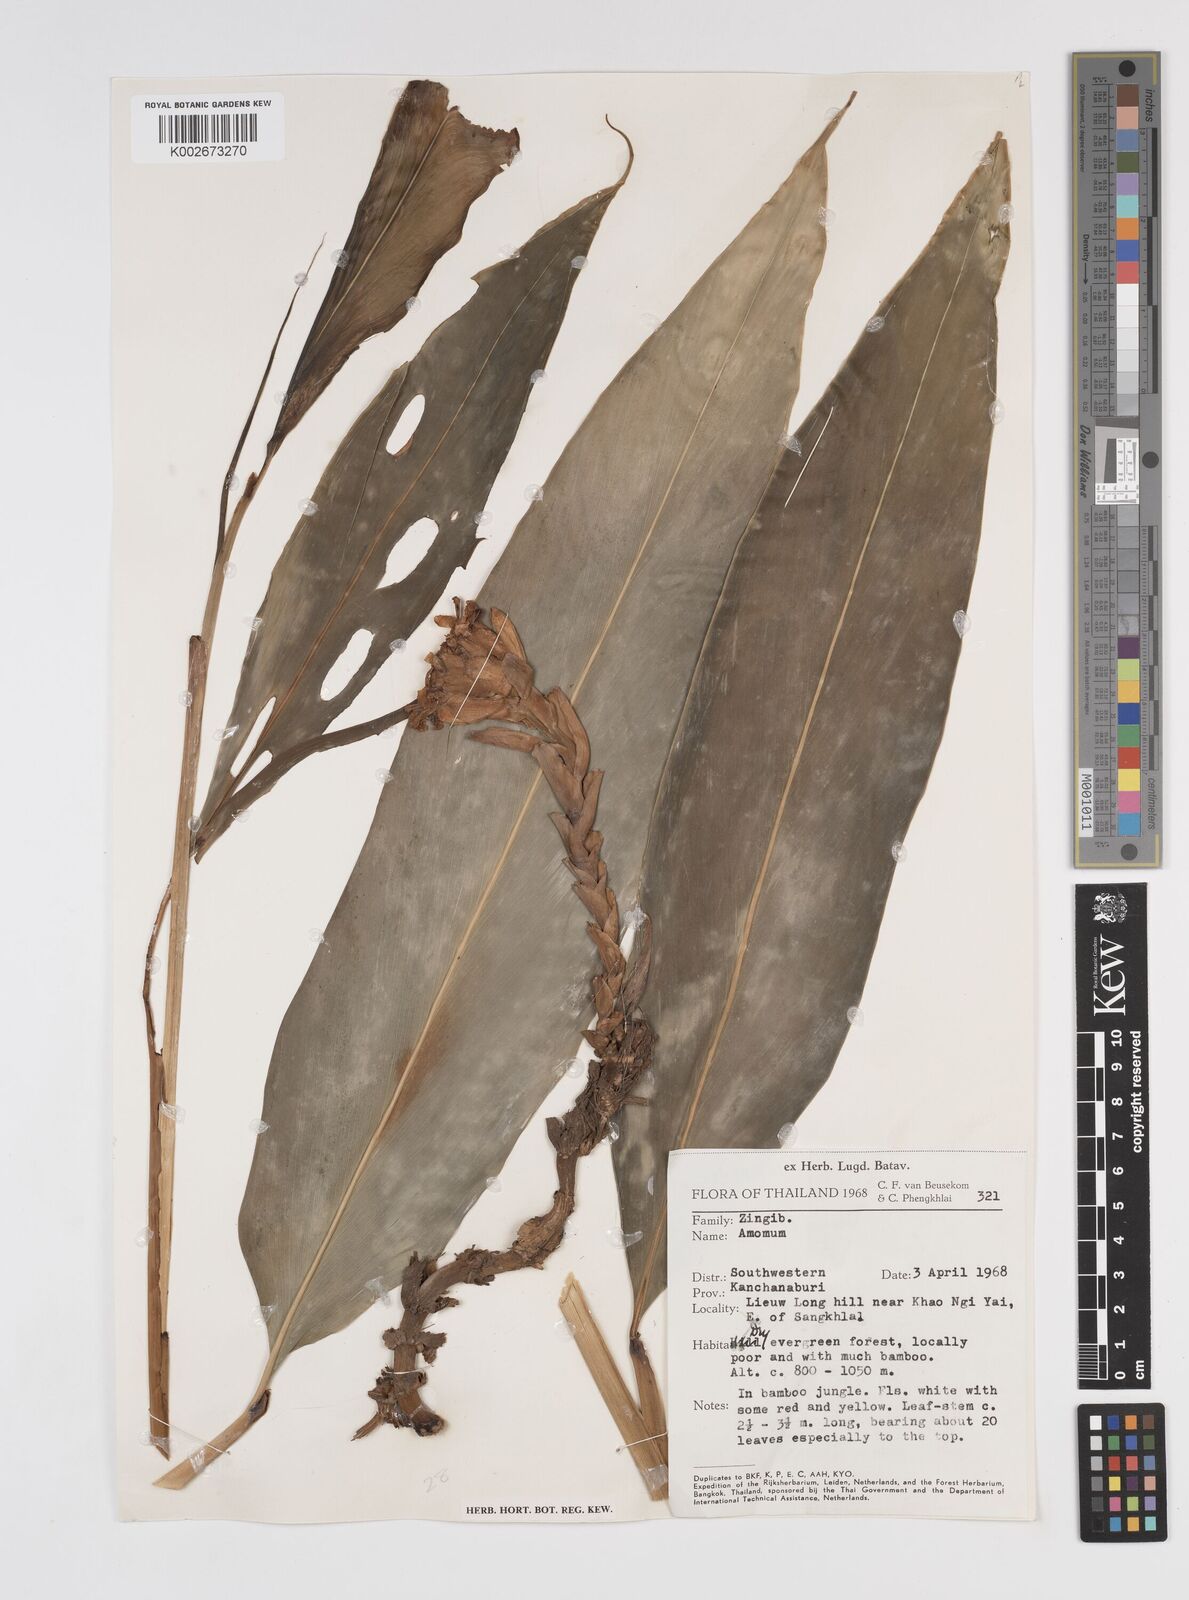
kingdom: Plantae
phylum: Tracheophyta
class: Liliopsida
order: Zingiberales
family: Zingiberaceae
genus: Amomum
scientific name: Amomum
